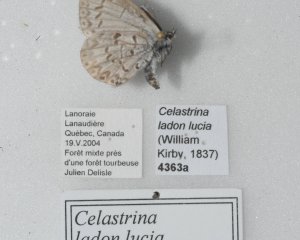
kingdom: Animalia
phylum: Arthropoda
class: Insecta
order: Lepidoptera
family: Lycaenidae
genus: Celastrina
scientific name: Celastrina lucia
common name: Northern Spring Azure
